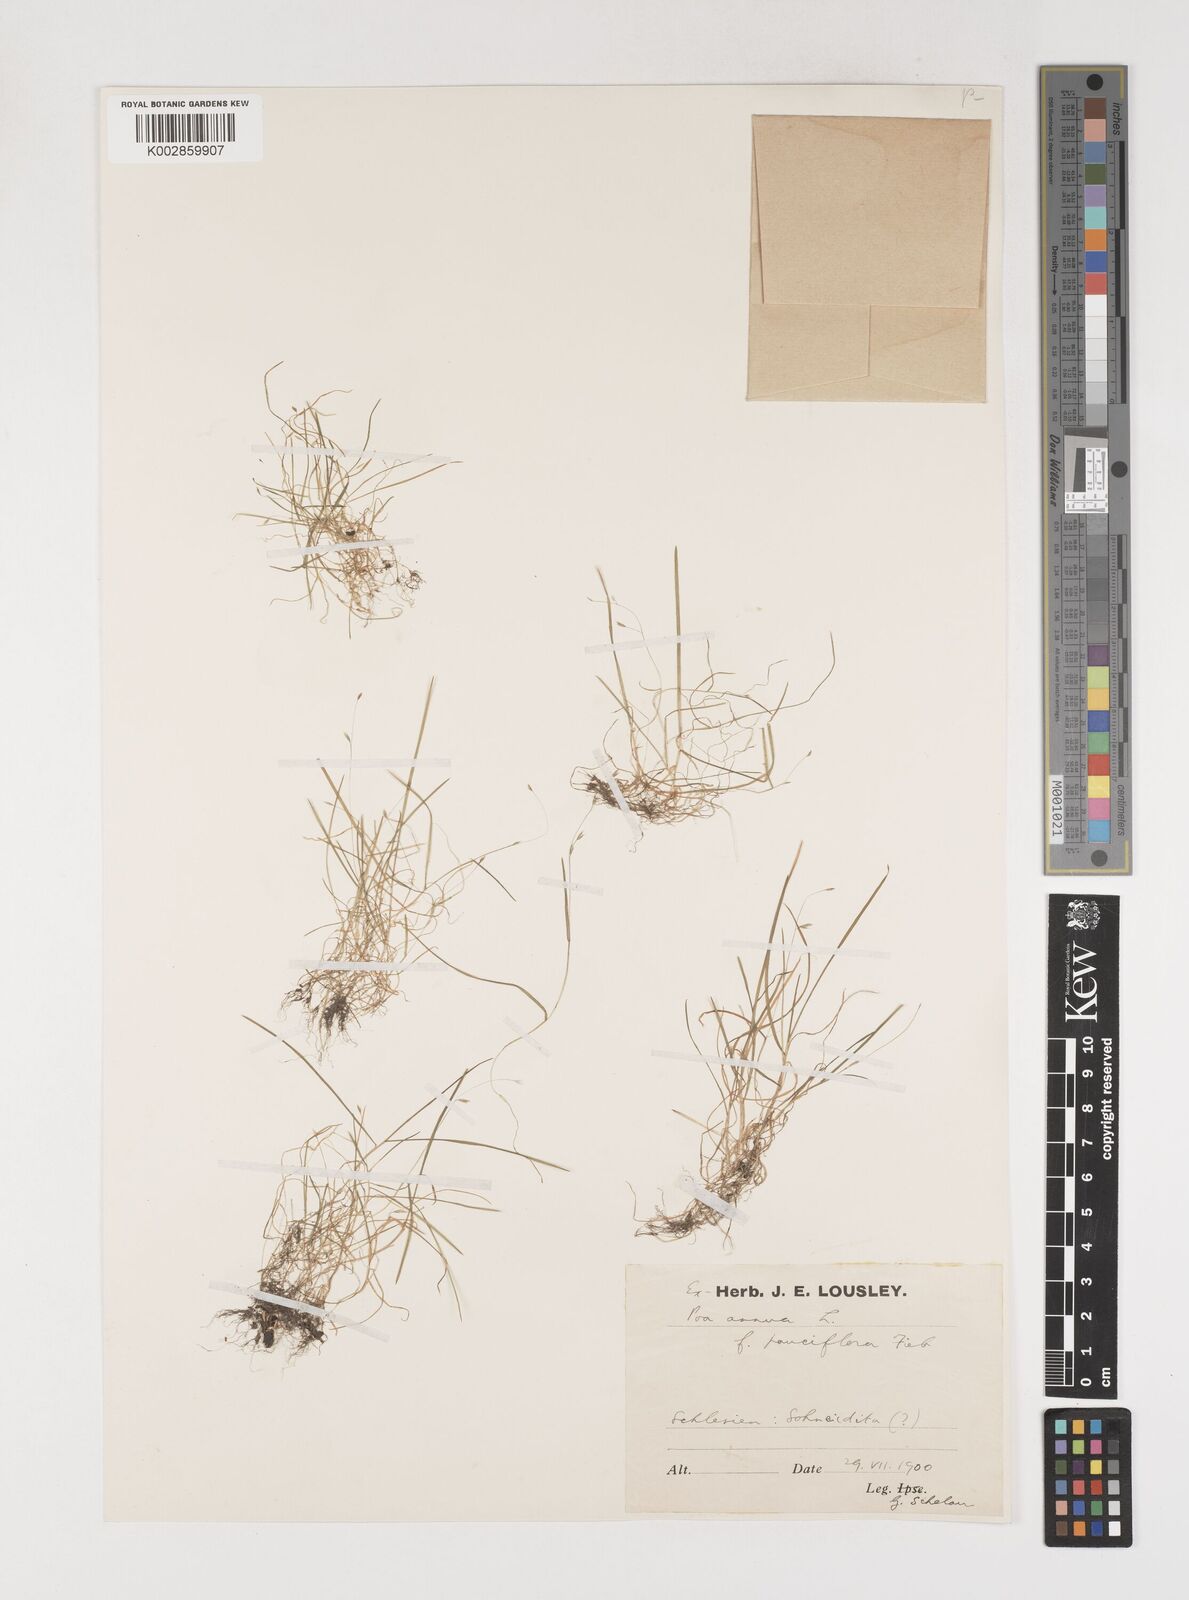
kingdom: Plantae
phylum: Tracheophyta
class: Liliopsida
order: Poales
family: Poaceae
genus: Poa
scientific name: Poa annua
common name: Annual bluegrass
